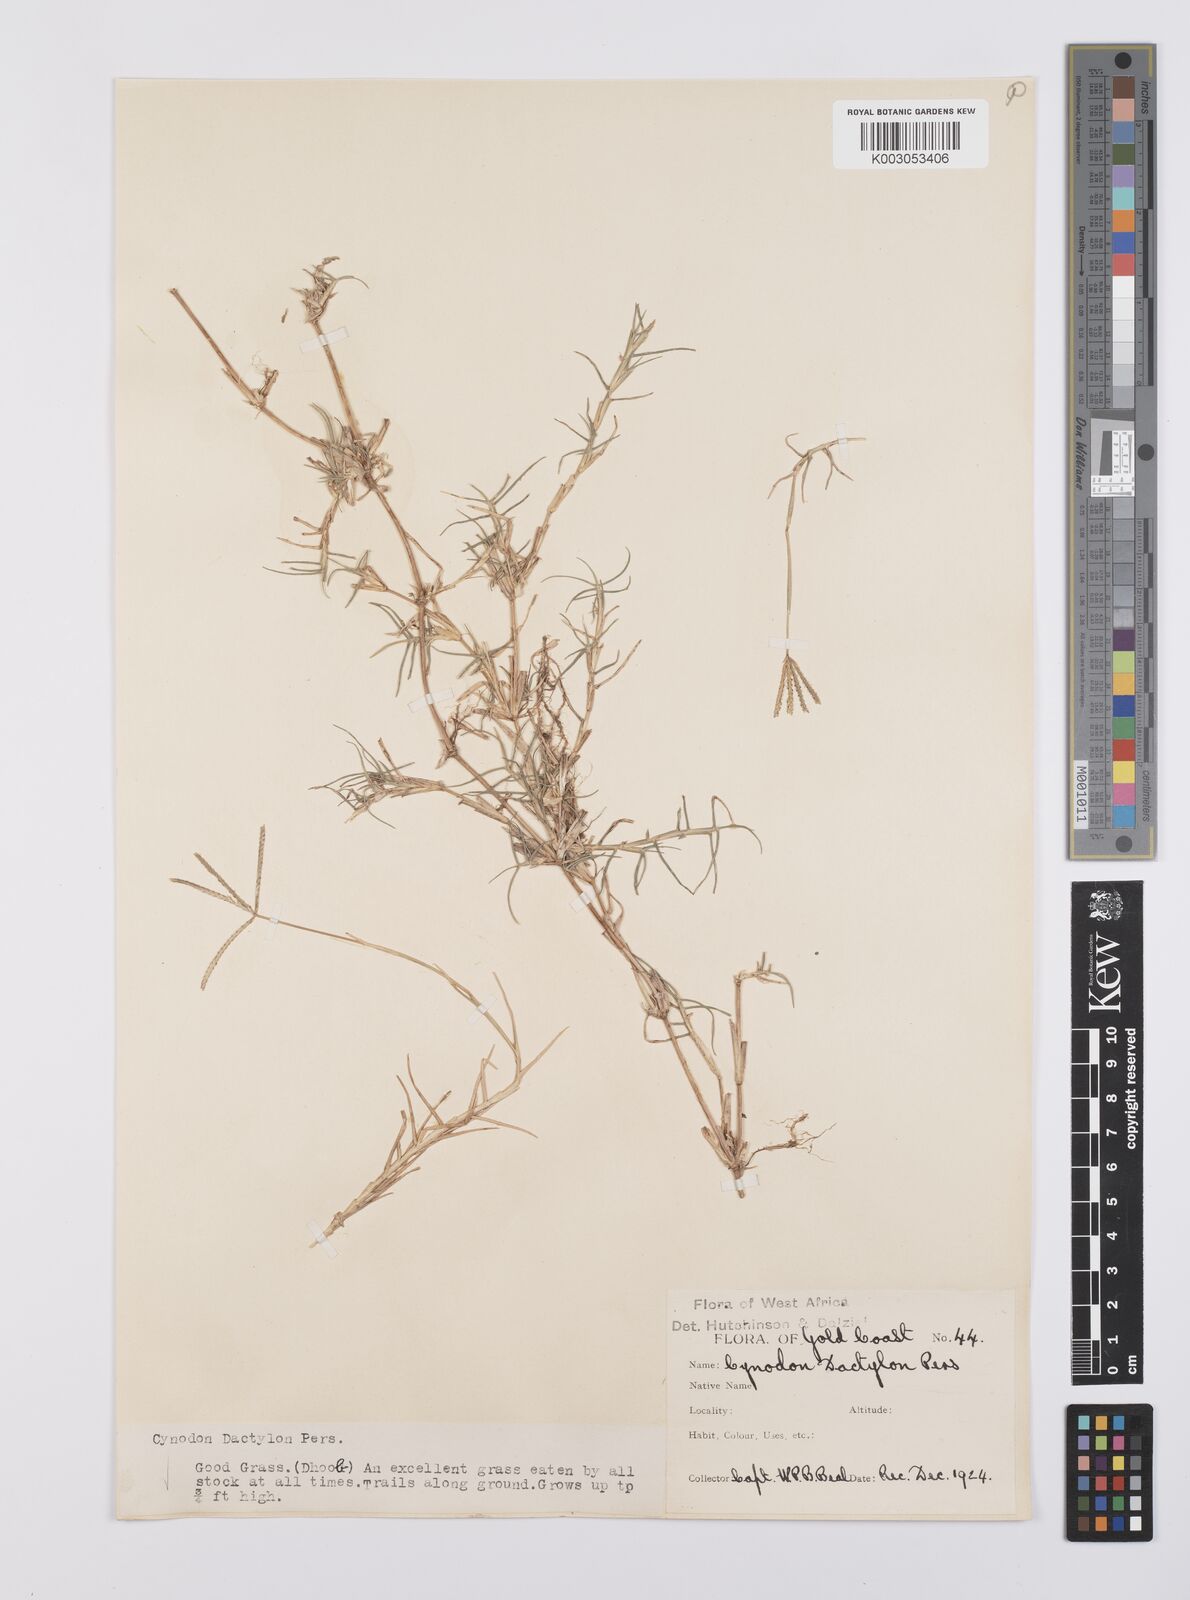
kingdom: Plantae
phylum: Tracheophyta
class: Liliopsida
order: Poales
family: Poaceae
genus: Cynodon
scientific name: Cynodon dactylon
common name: Bermuda grass
